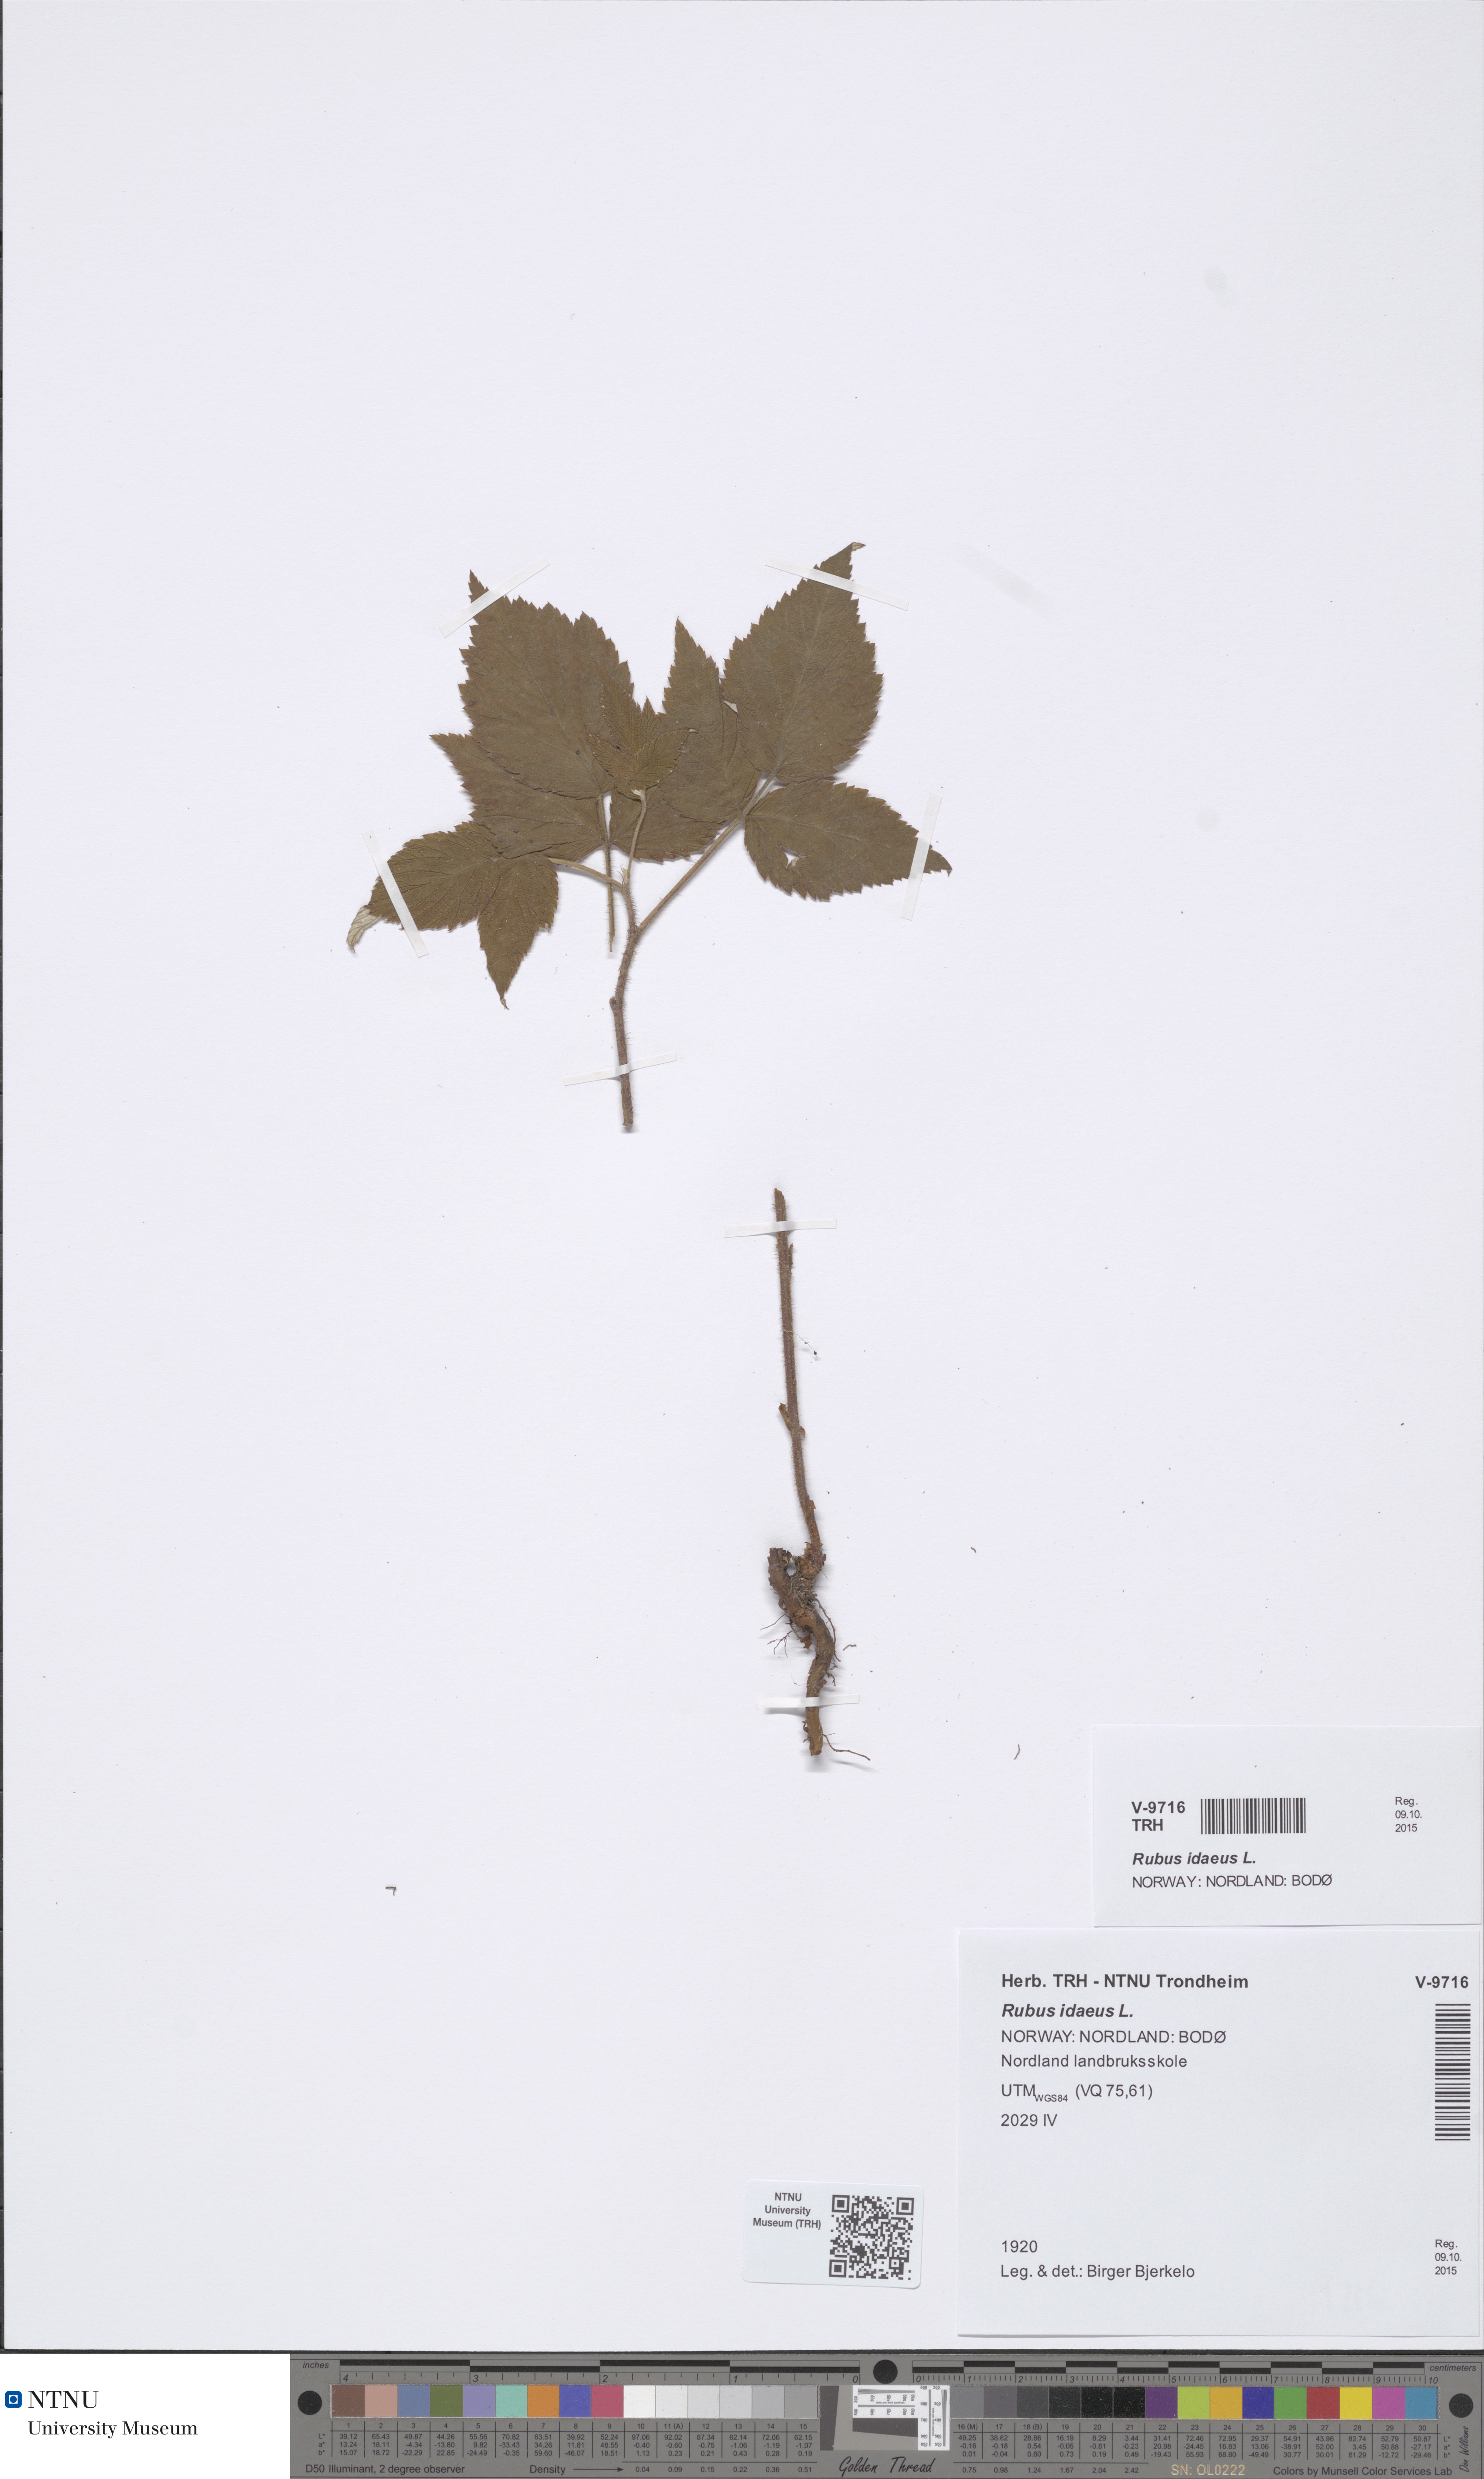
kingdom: Plantae
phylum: Tracheophyta
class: Magnoliopsida
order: Rosales
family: Rosaceae
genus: Rubus
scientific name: Rubus idaeus
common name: Raspberry
